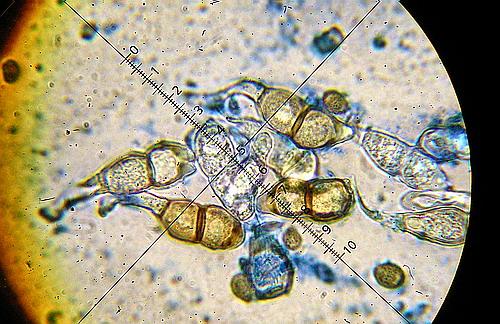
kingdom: Fungi
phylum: Basidiomycota
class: Pucciniomycetes
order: Pucciniales
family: Pucciniaceae
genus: Puccinia
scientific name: Puccinia circaeae
